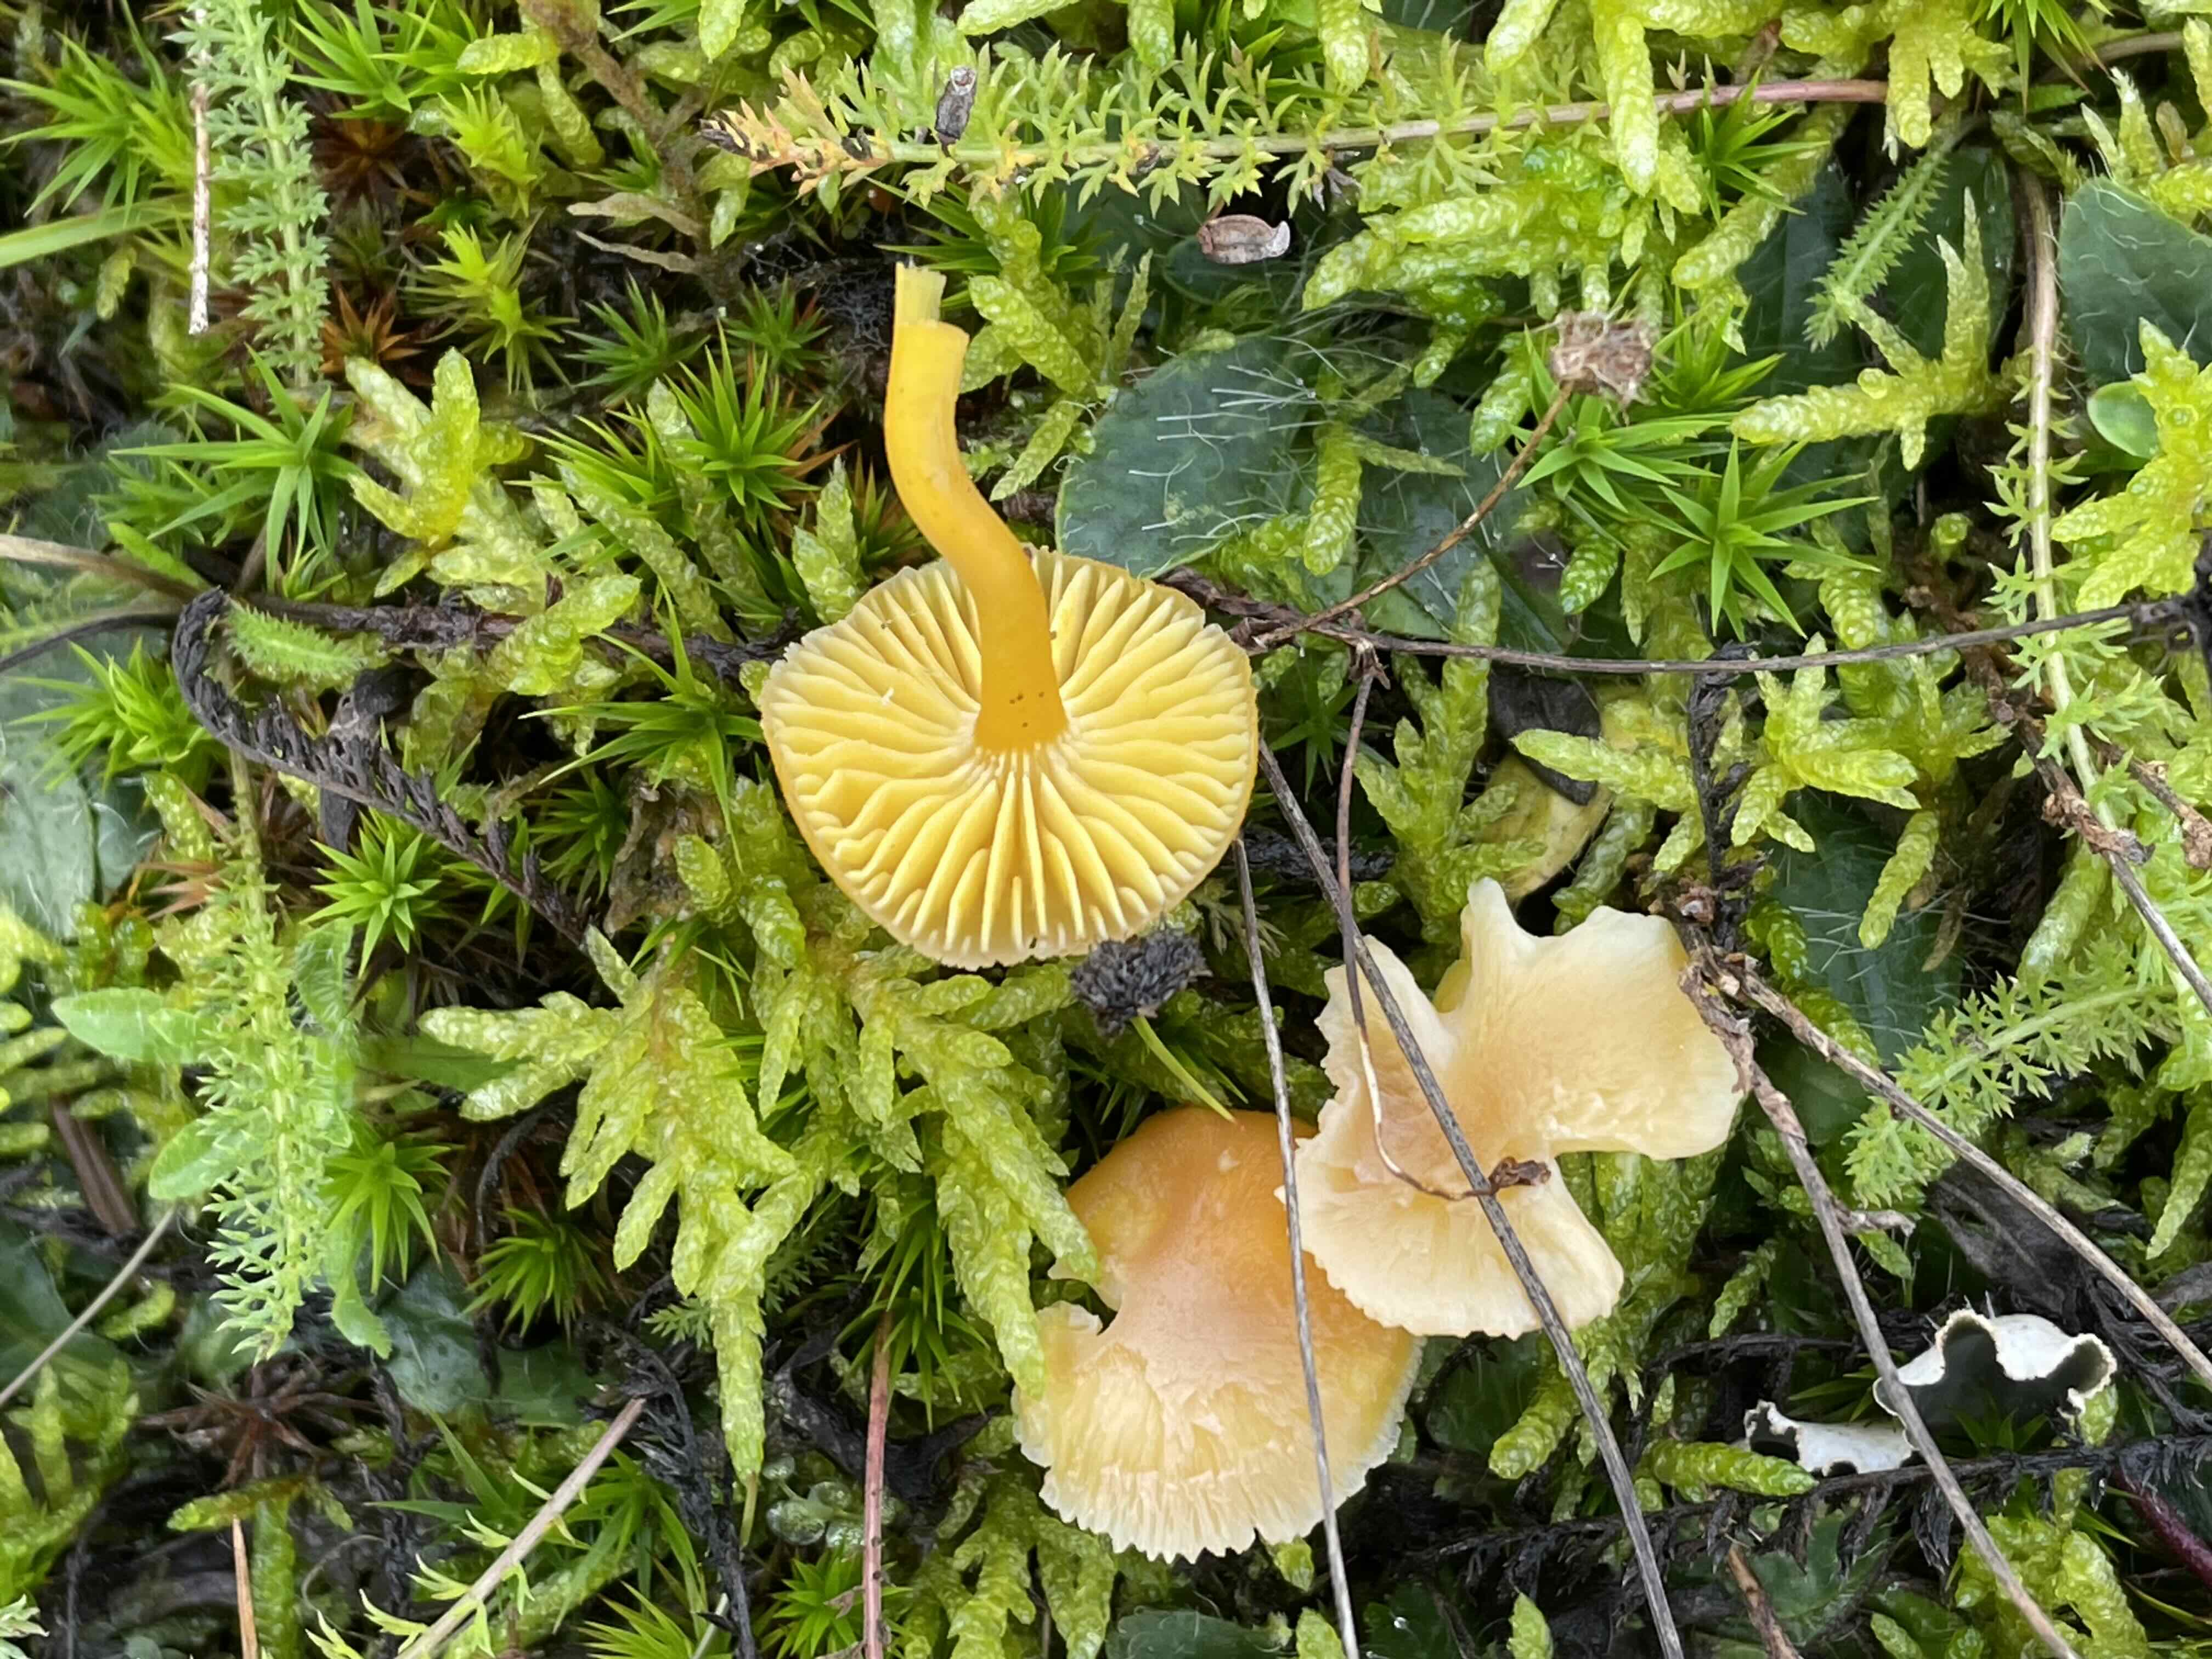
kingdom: Fungi
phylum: Basidiomycota
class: Agaricomycetes
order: Agaricales
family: Hygrophoraceae
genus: Hygrocybe
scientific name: Hygrocybe ceracea
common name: voksgul vokshat
